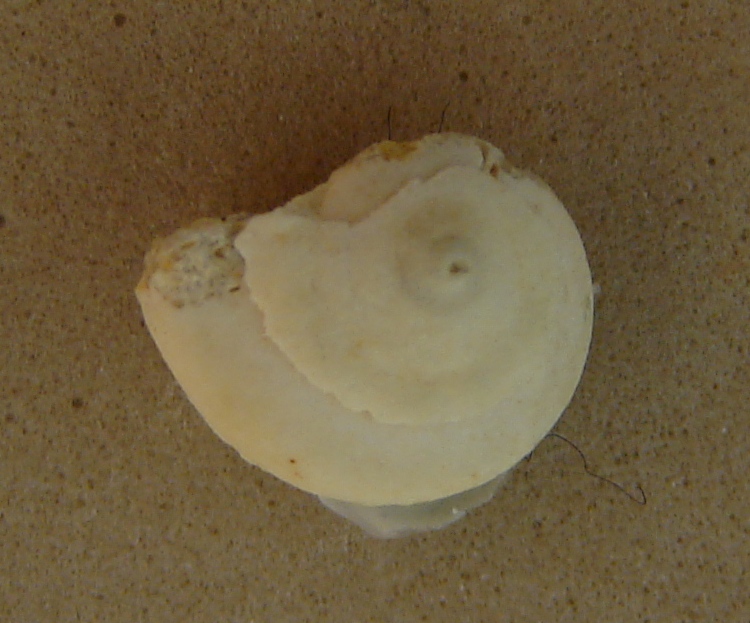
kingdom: Animalia
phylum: Mollusca
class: Gastropoda
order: Pleurotomariida
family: Ptychomphalidae
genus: Ptychomphalus
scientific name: Ptychomphalus Pleurotomaria rotellaeformis
